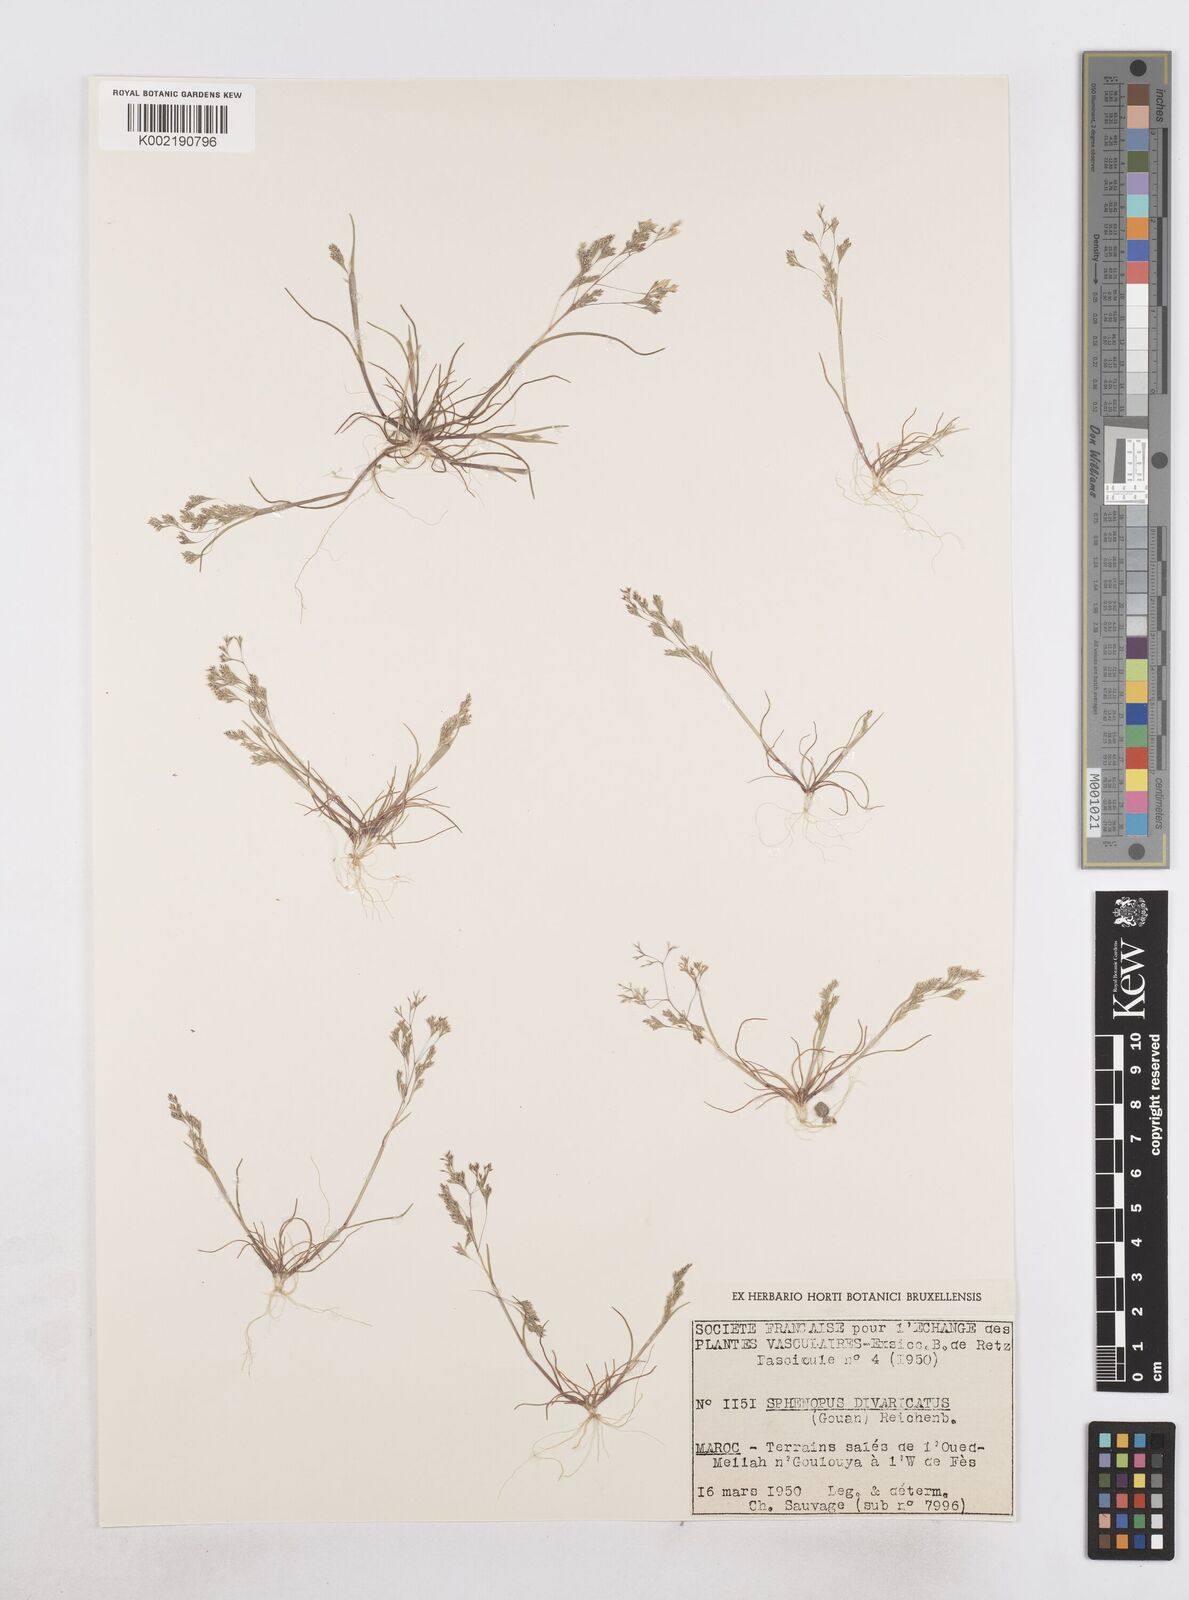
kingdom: Plantae
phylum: Tracheophyta
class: Liliopsida
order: Poales
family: Poaceae
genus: Sphenopus
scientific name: Sphenopus divaricatus
